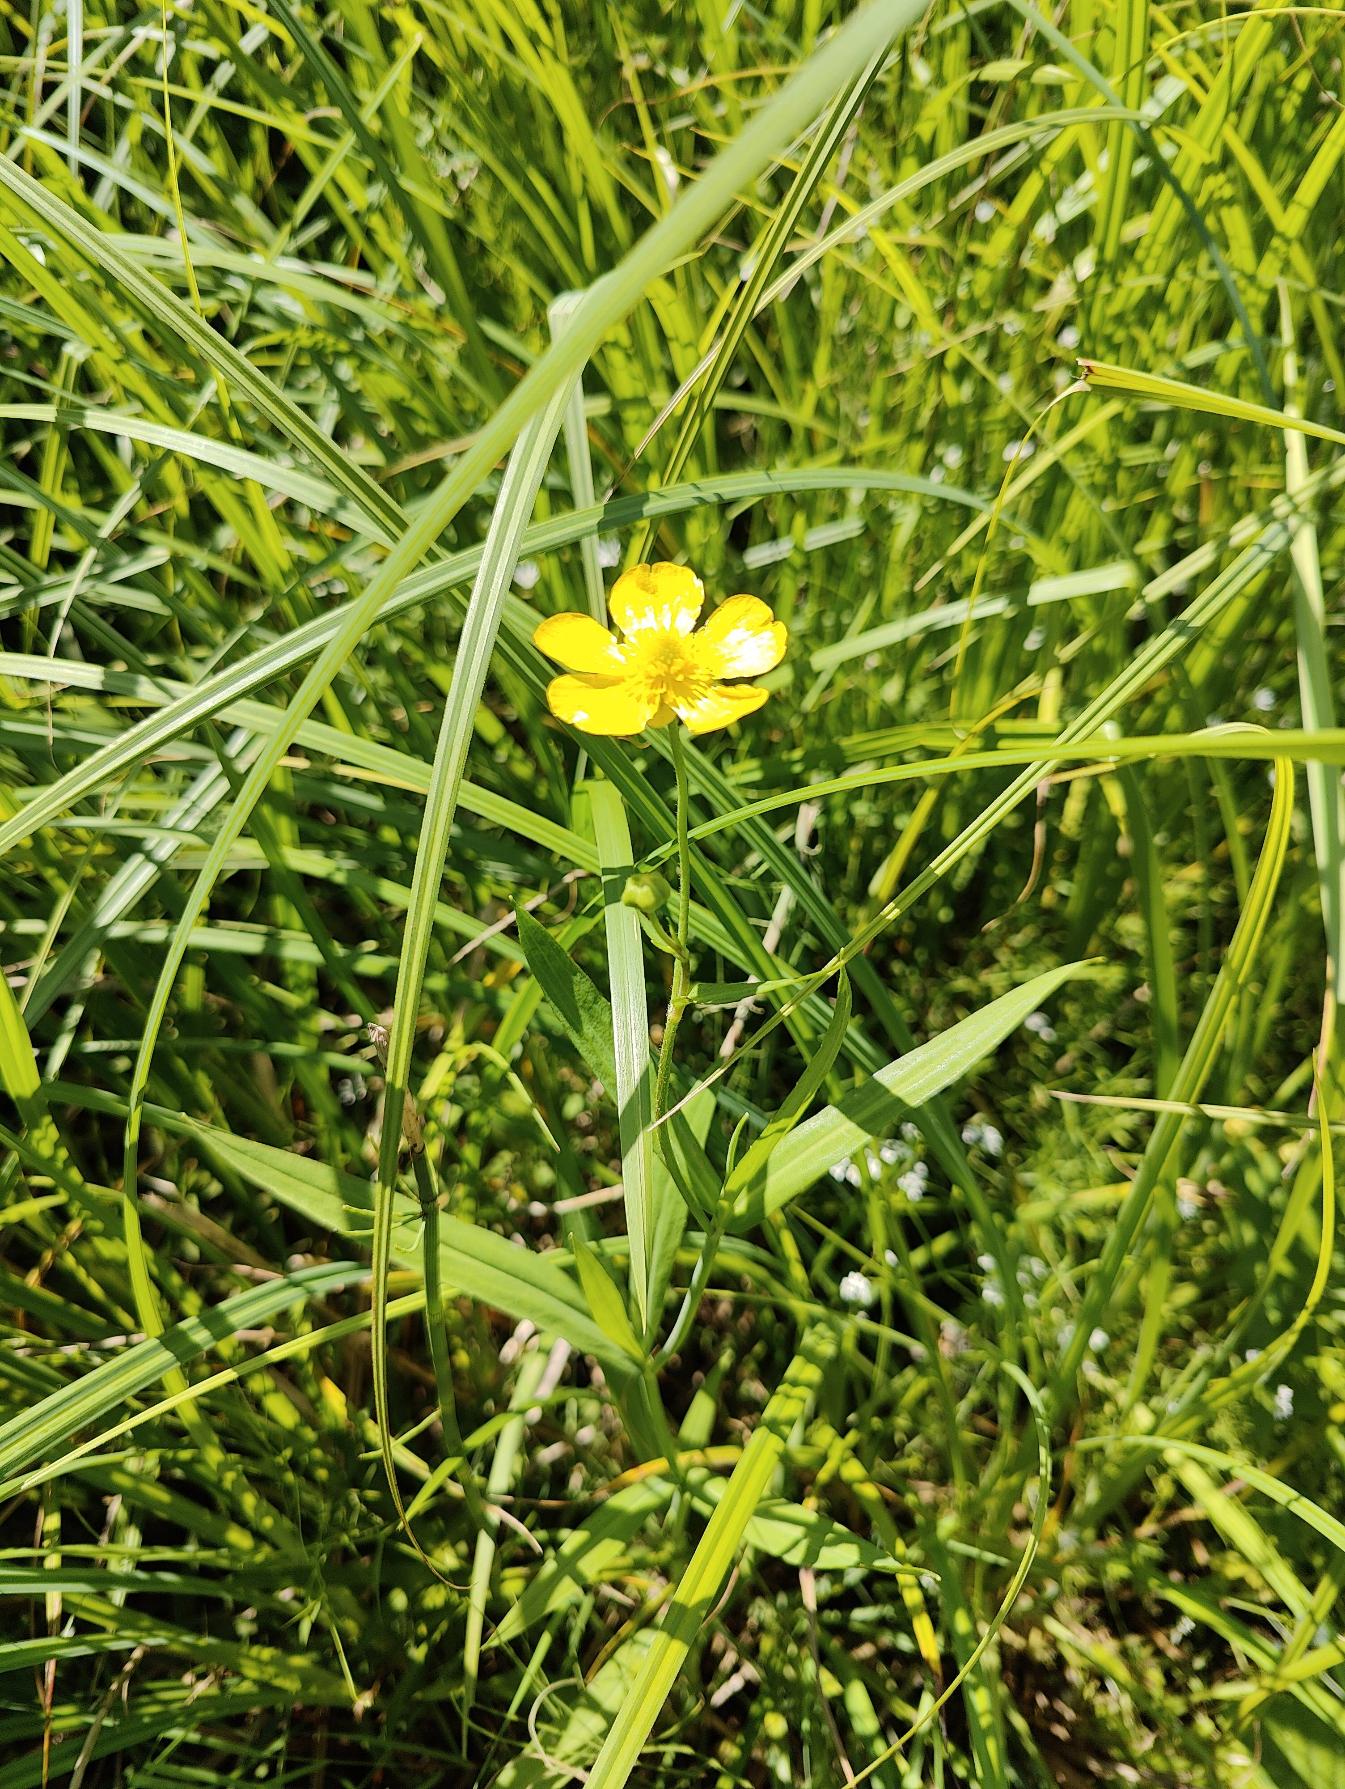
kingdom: Plantae
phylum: Tracheophyta
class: Magnoliopsida
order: Ranunculales
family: Ranunculaceae
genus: Ranunculus
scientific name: Ranunculus lingua
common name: Langbladet ranunkel
